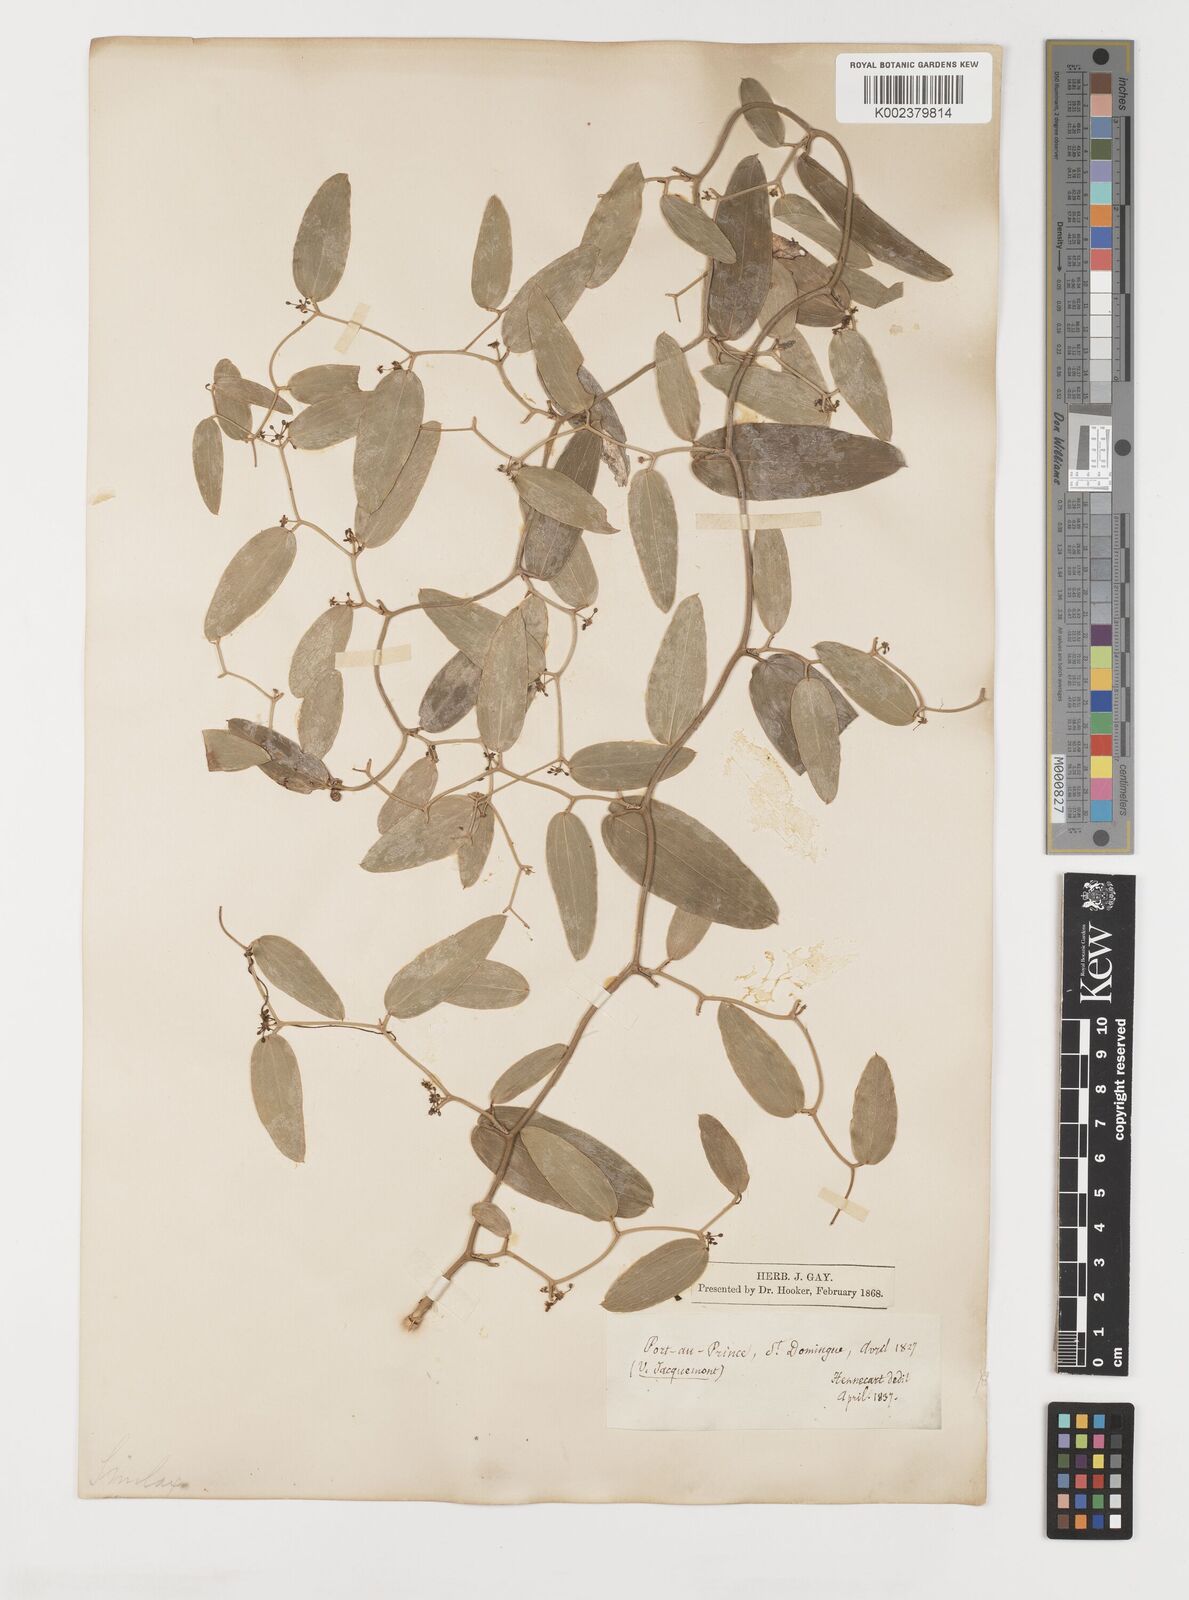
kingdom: Plantae
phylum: Tracheophyta
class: Liliopsida
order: Liliales
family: Smilacaceae
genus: Smilax
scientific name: Smilax oblongata
